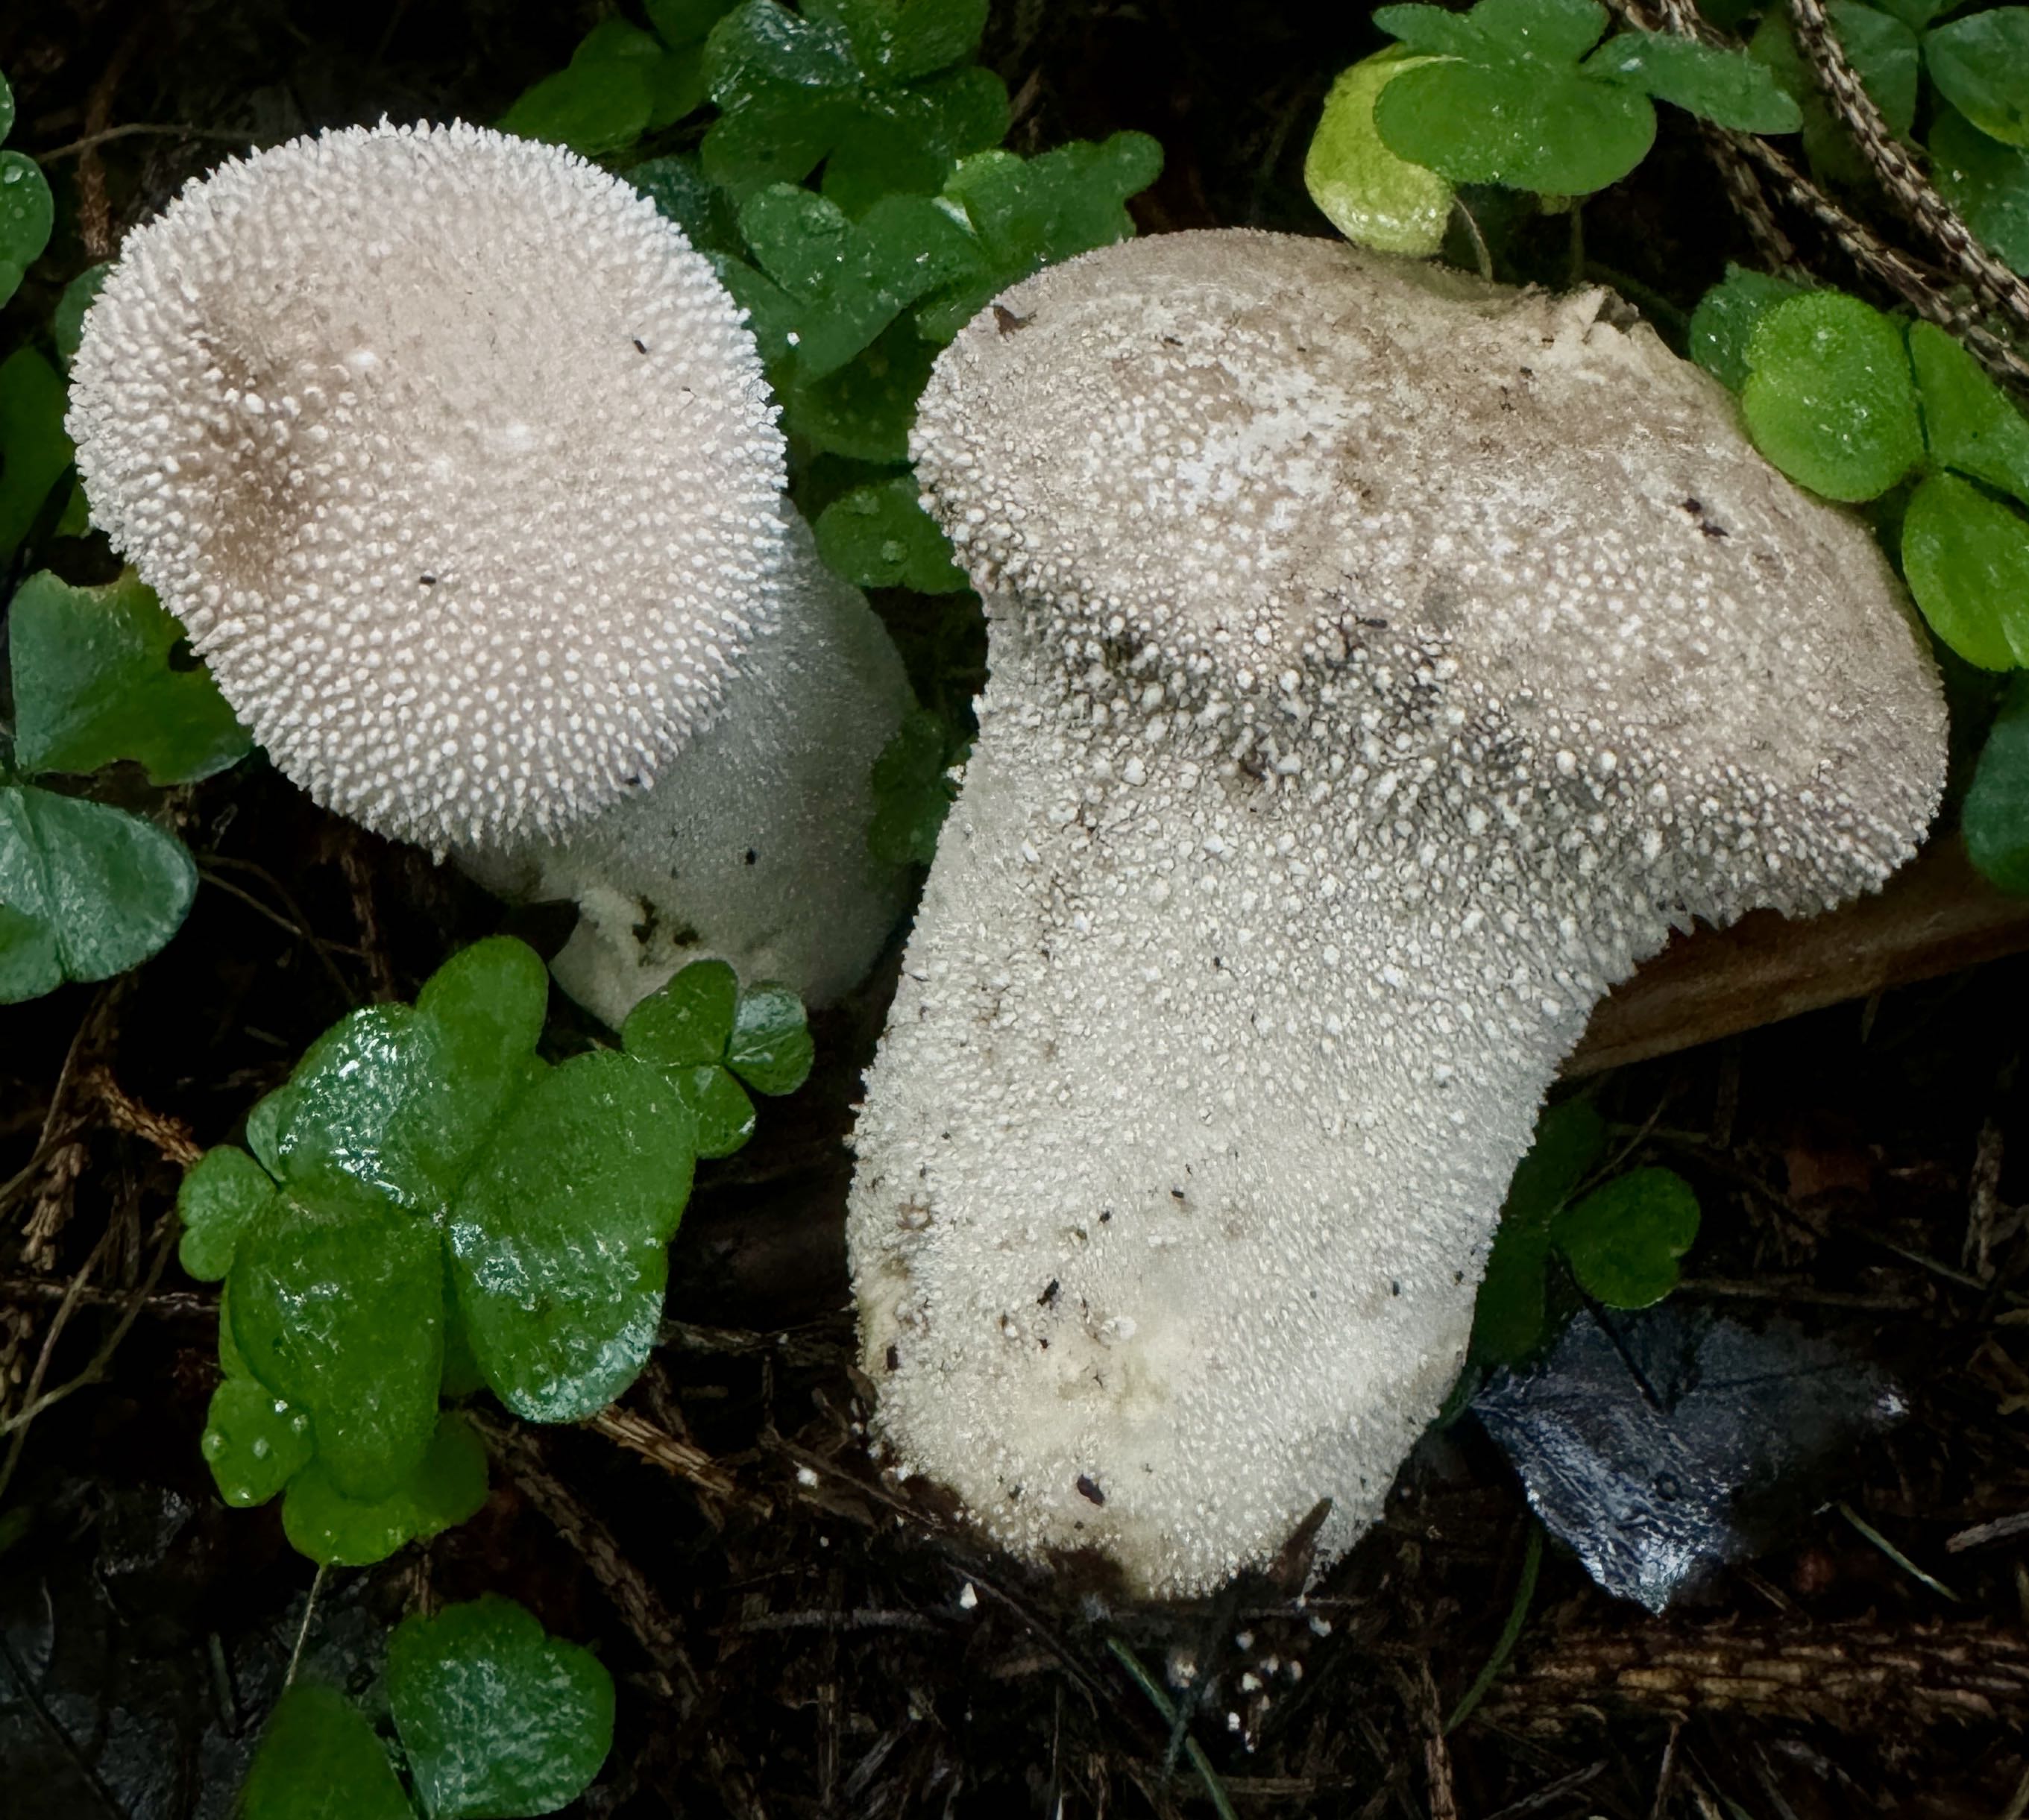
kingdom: Fungi
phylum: Basidiomycota
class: Agaricomycetes
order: Agaricales
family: Lycoperdaceae
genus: Lycoperdon
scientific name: Lycoperdon perlatum
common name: krystal-støvbold
